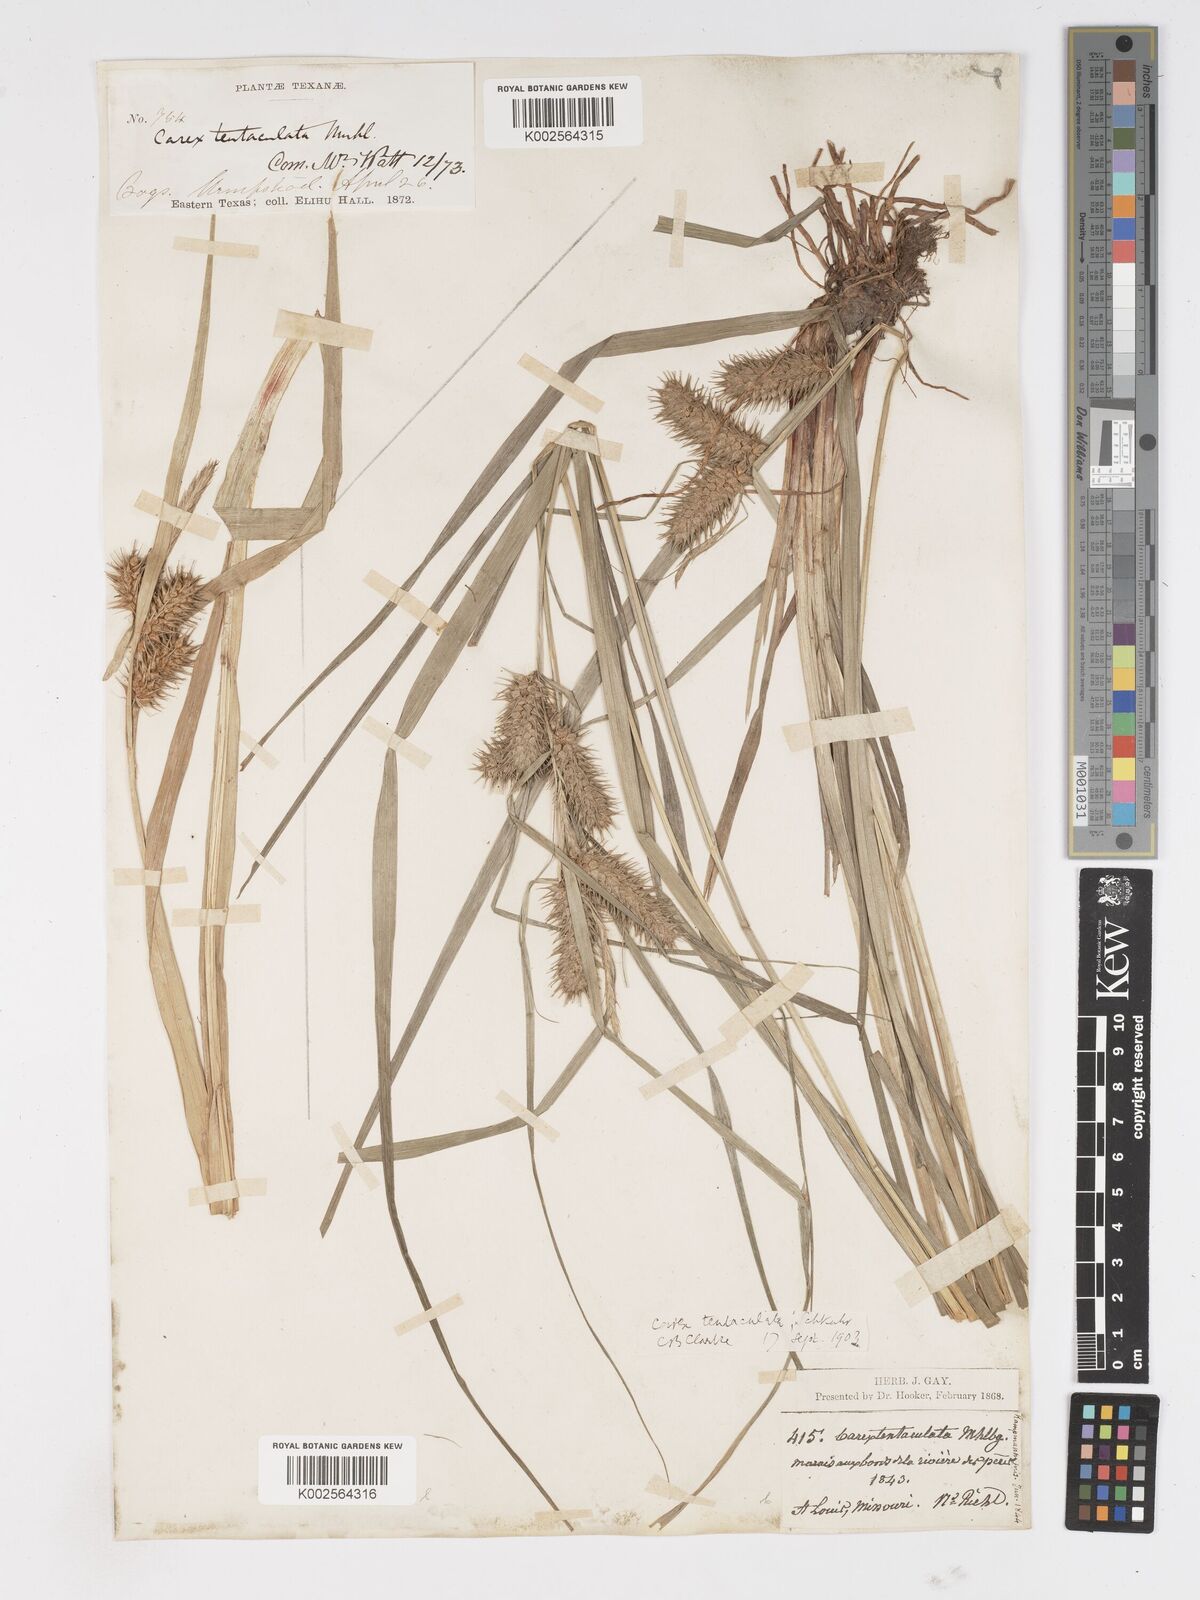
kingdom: Plantae
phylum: Tracheophyta
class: Liliopsida
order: Poales
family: Cyperaceae
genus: Carex
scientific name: Carex lurida
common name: Sallow sedge
